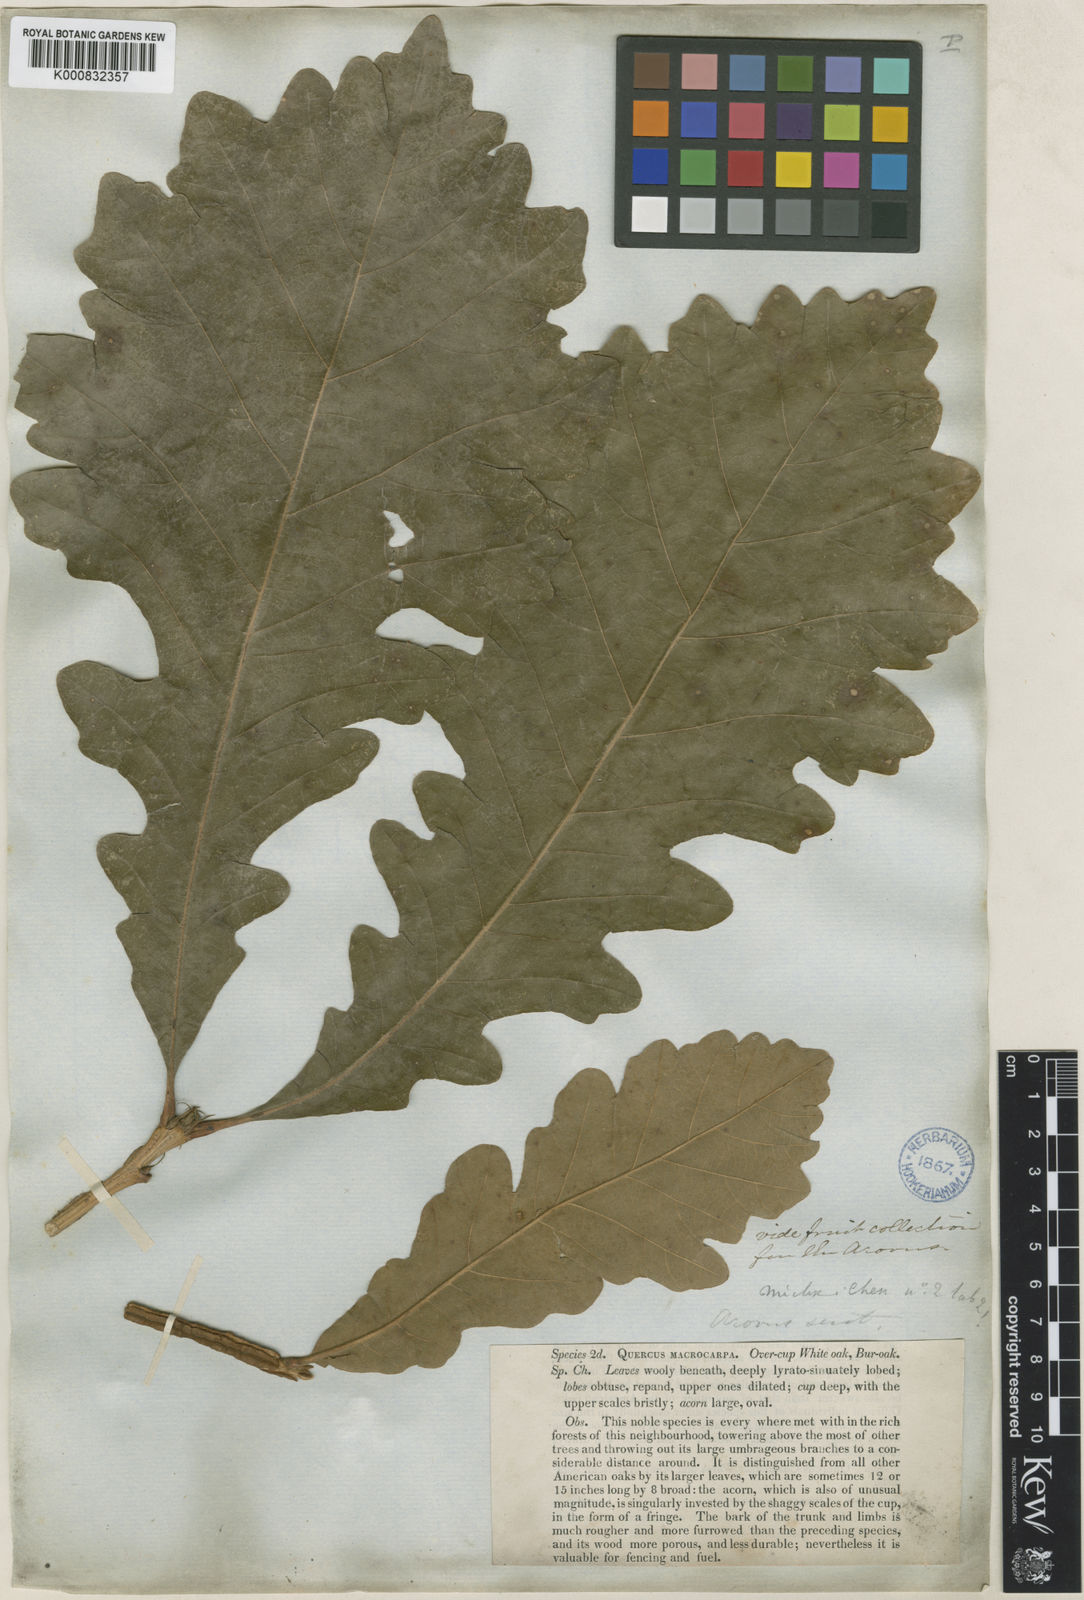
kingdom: Plantae
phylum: Tracheophyta
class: Magnoliopsida
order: Fagales
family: Fagaceae
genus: Quercus
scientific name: Quercus macrocarpa
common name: Bur oak
